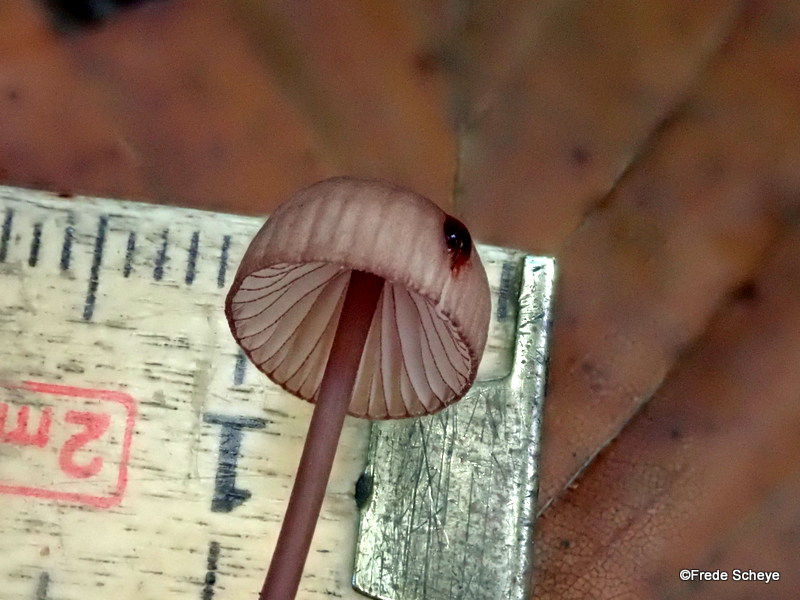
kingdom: Fungi
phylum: Basidiomycota
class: Agaricomycetes
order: Agaricales
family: Mycenaceae
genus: Mycena
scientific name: Mycena sanguinolenta
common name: rødmælket huesvamp
